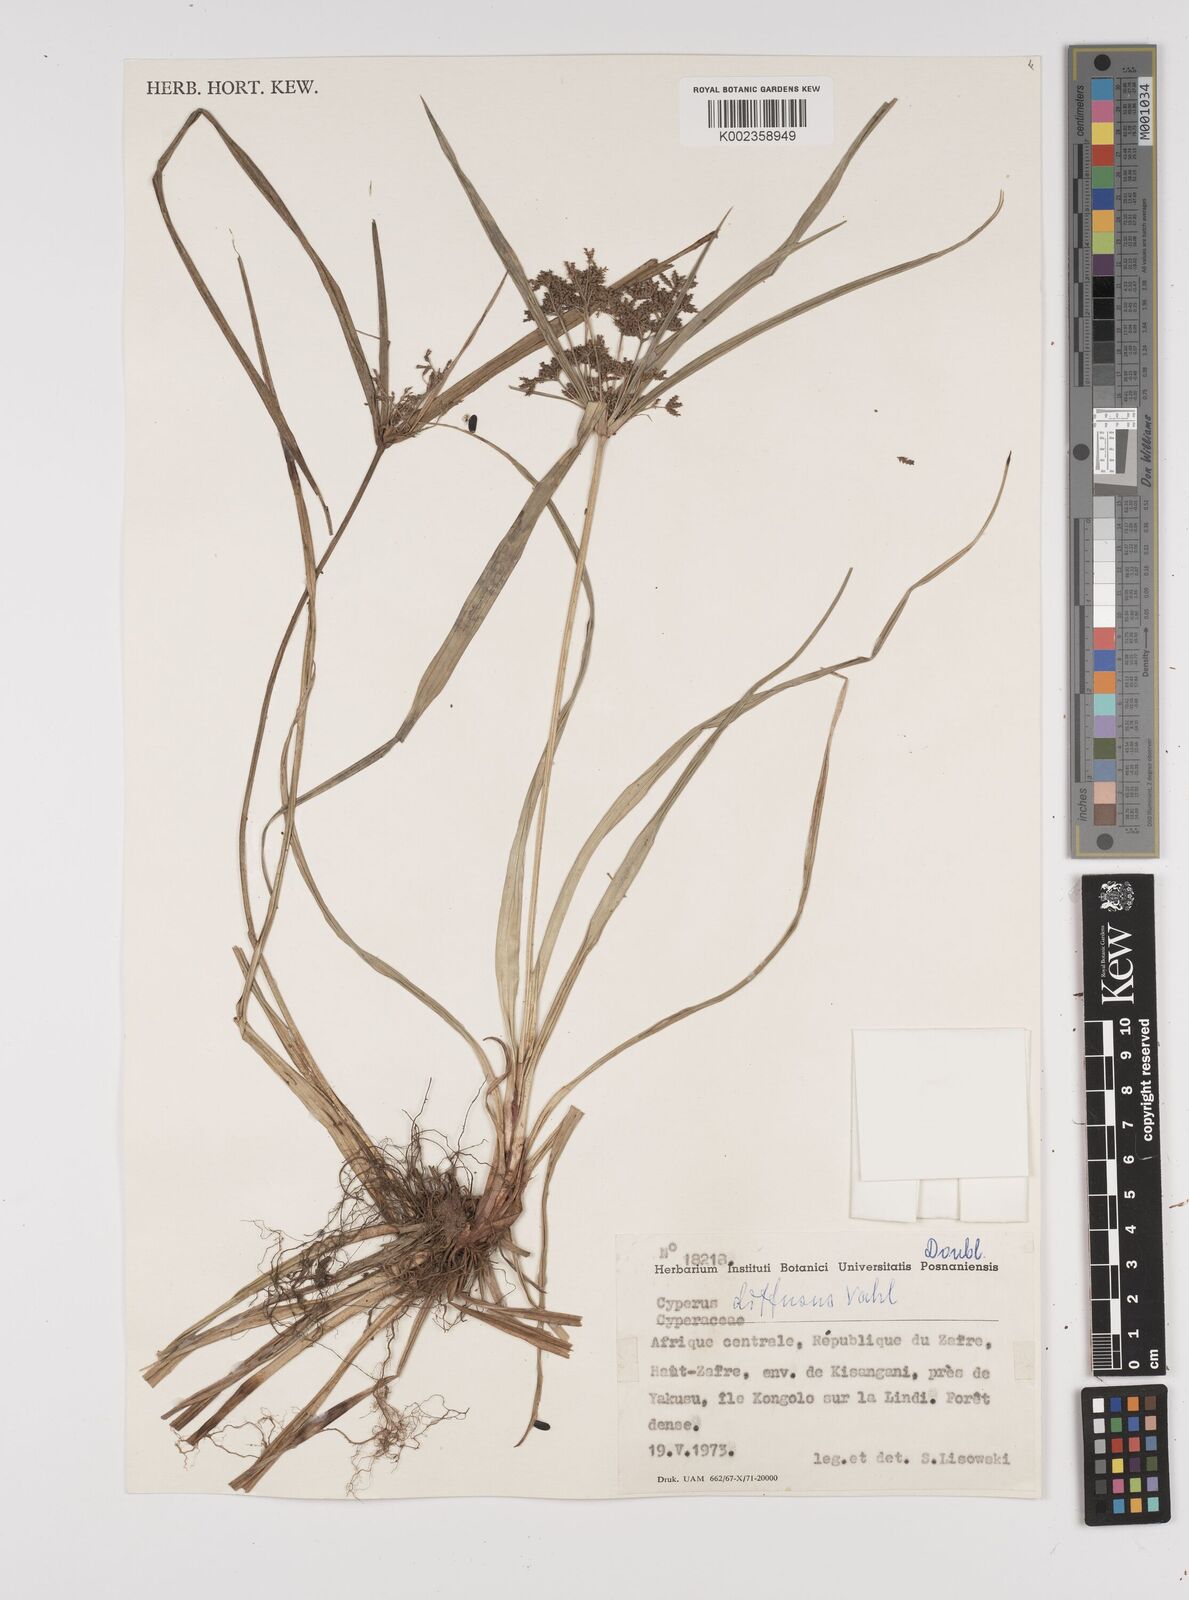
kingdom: Plantae
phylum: Tracheophyta
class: Liliopsida
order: Poales
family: Cyperaceae
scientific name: Cyperaceae
